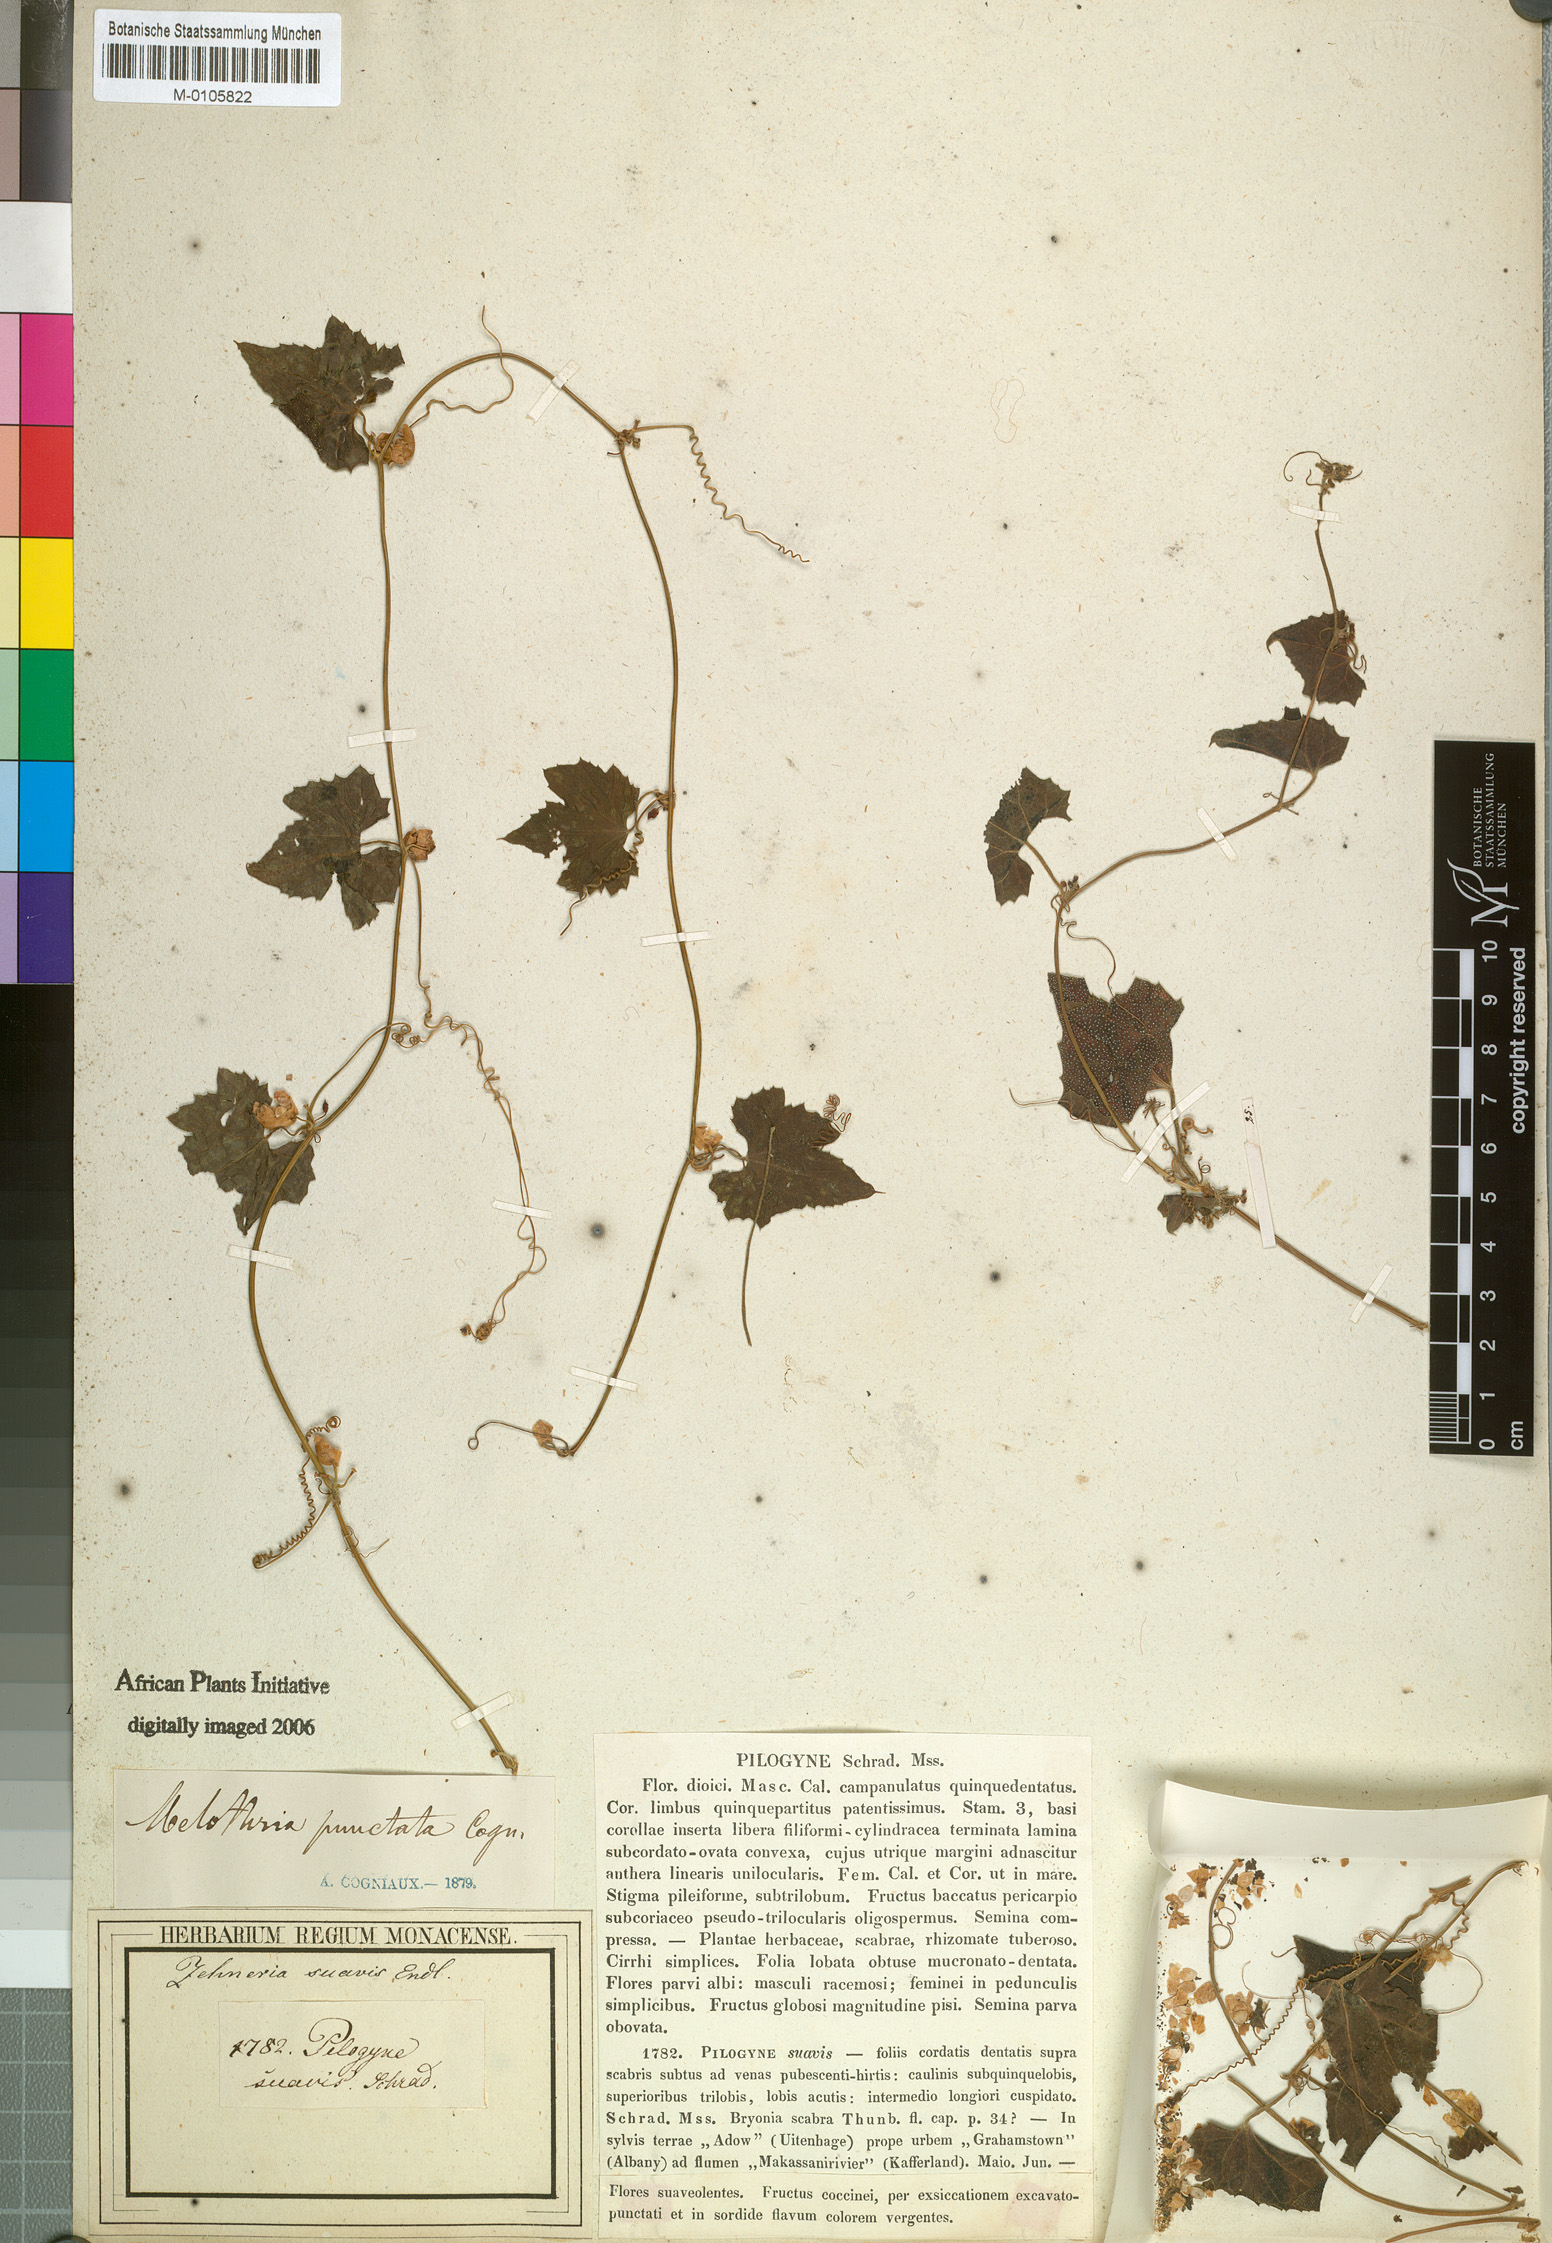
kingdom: Plantae
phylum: Tracheophyta
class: Magnoliopsida
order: Cucurbitales
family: Cucurbitaceae
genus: Zehneria
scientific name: Zehneria scabra
